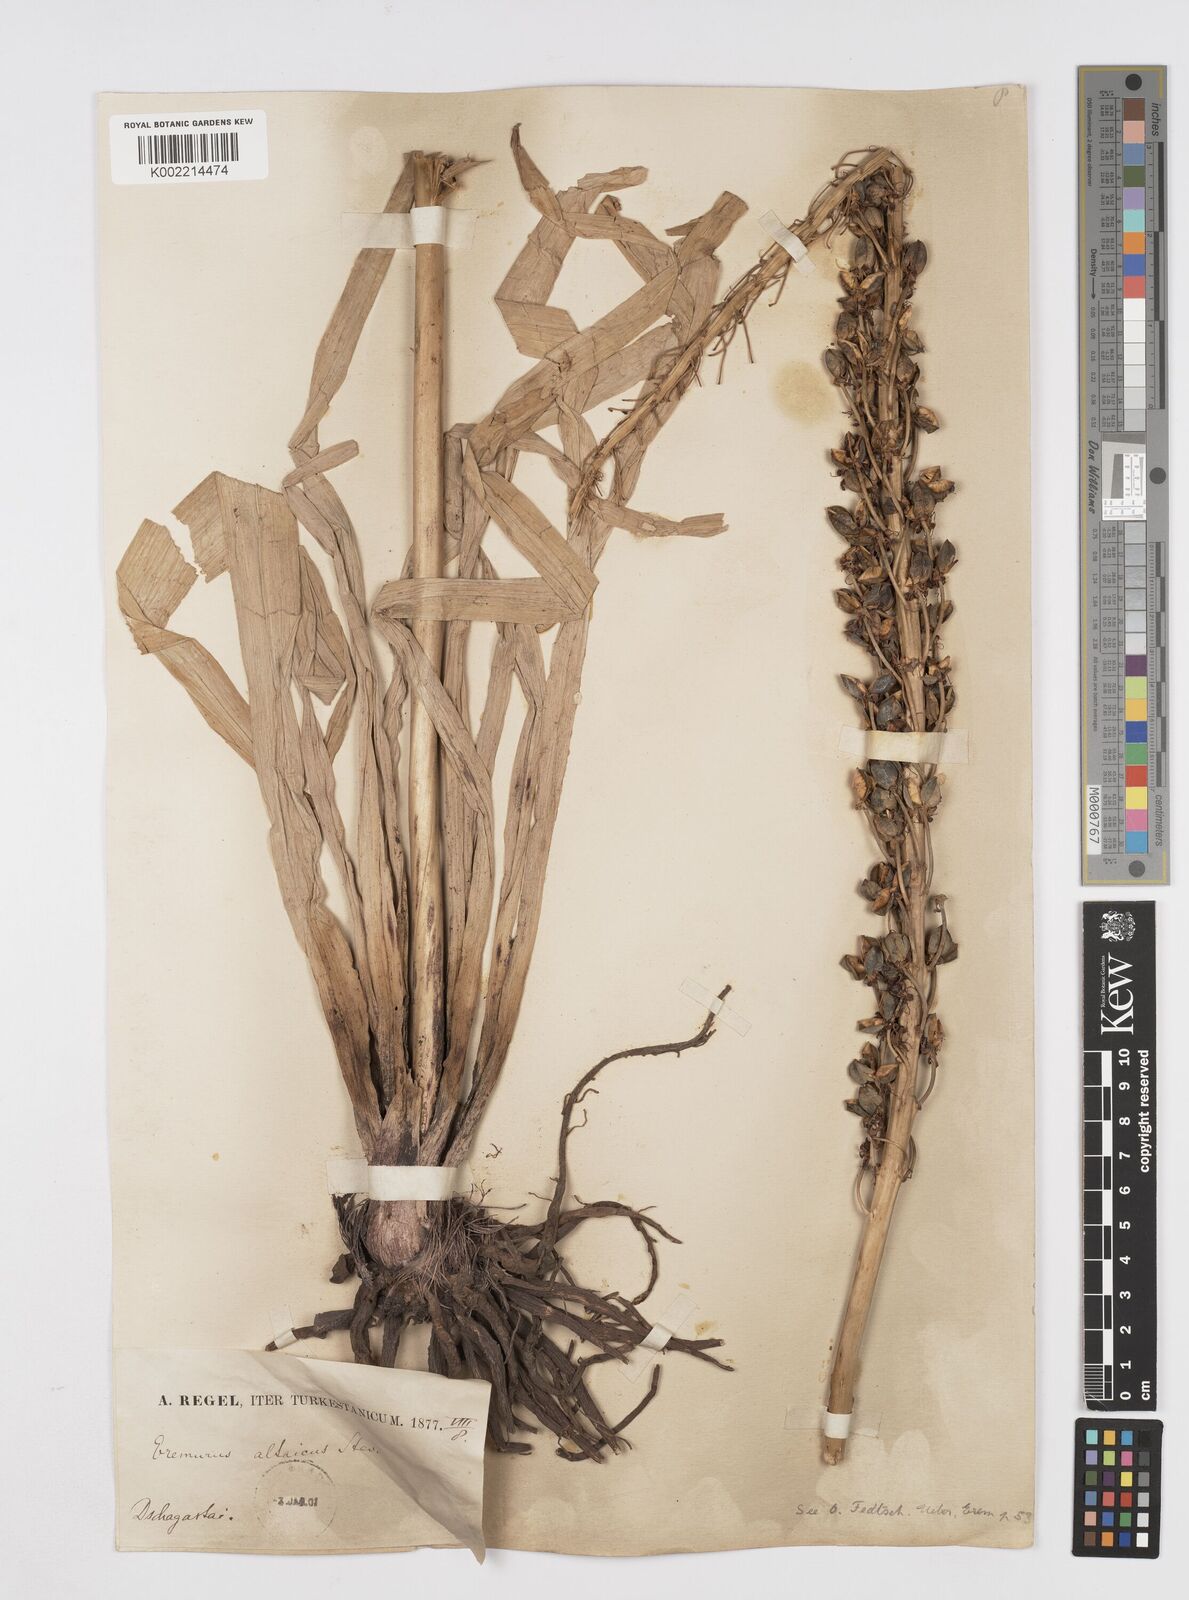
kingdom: Plantae
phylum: Tracheophyta
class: Liliopsida
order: Asparagales
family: Asphodelaceae
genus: Eremurus
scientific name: Eremurus altaicus
